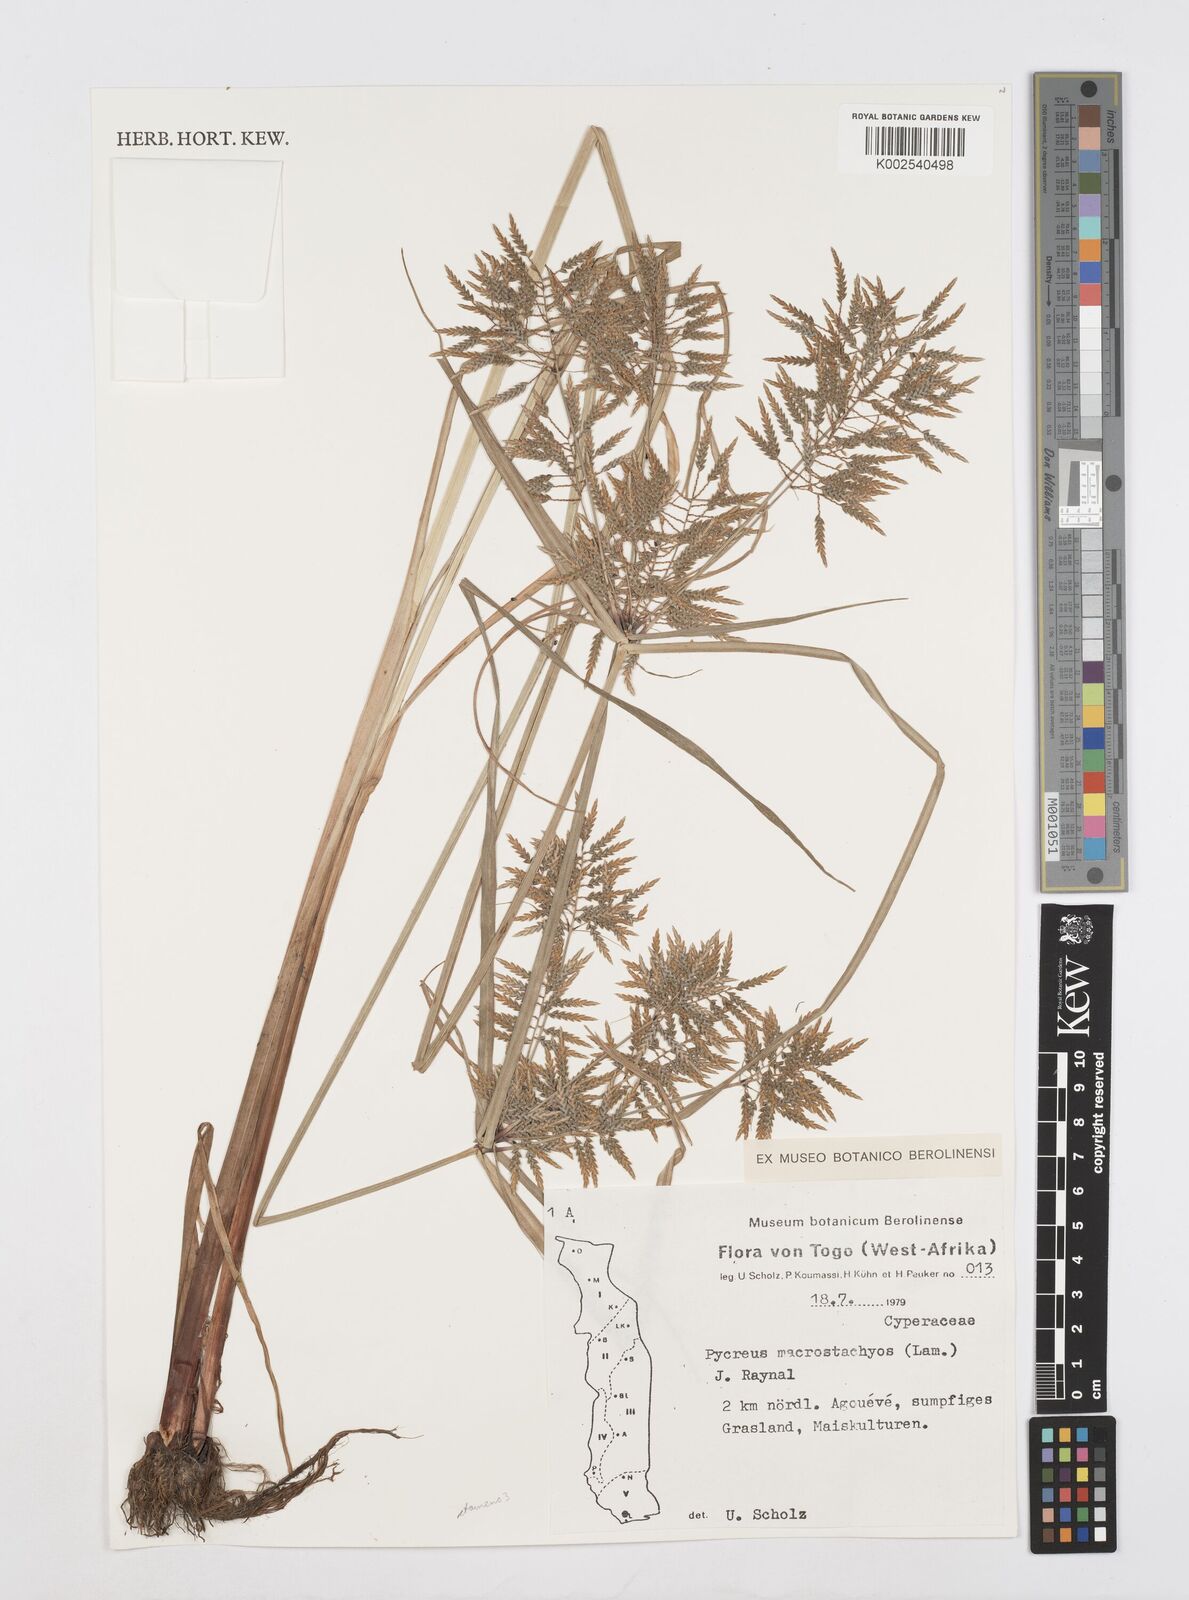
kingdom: Plantae
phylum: Tracheophyta
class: Liliopsida
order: Poales
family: Cyperaceae
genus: Cyperus
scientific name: Cyperus macrostachyos
